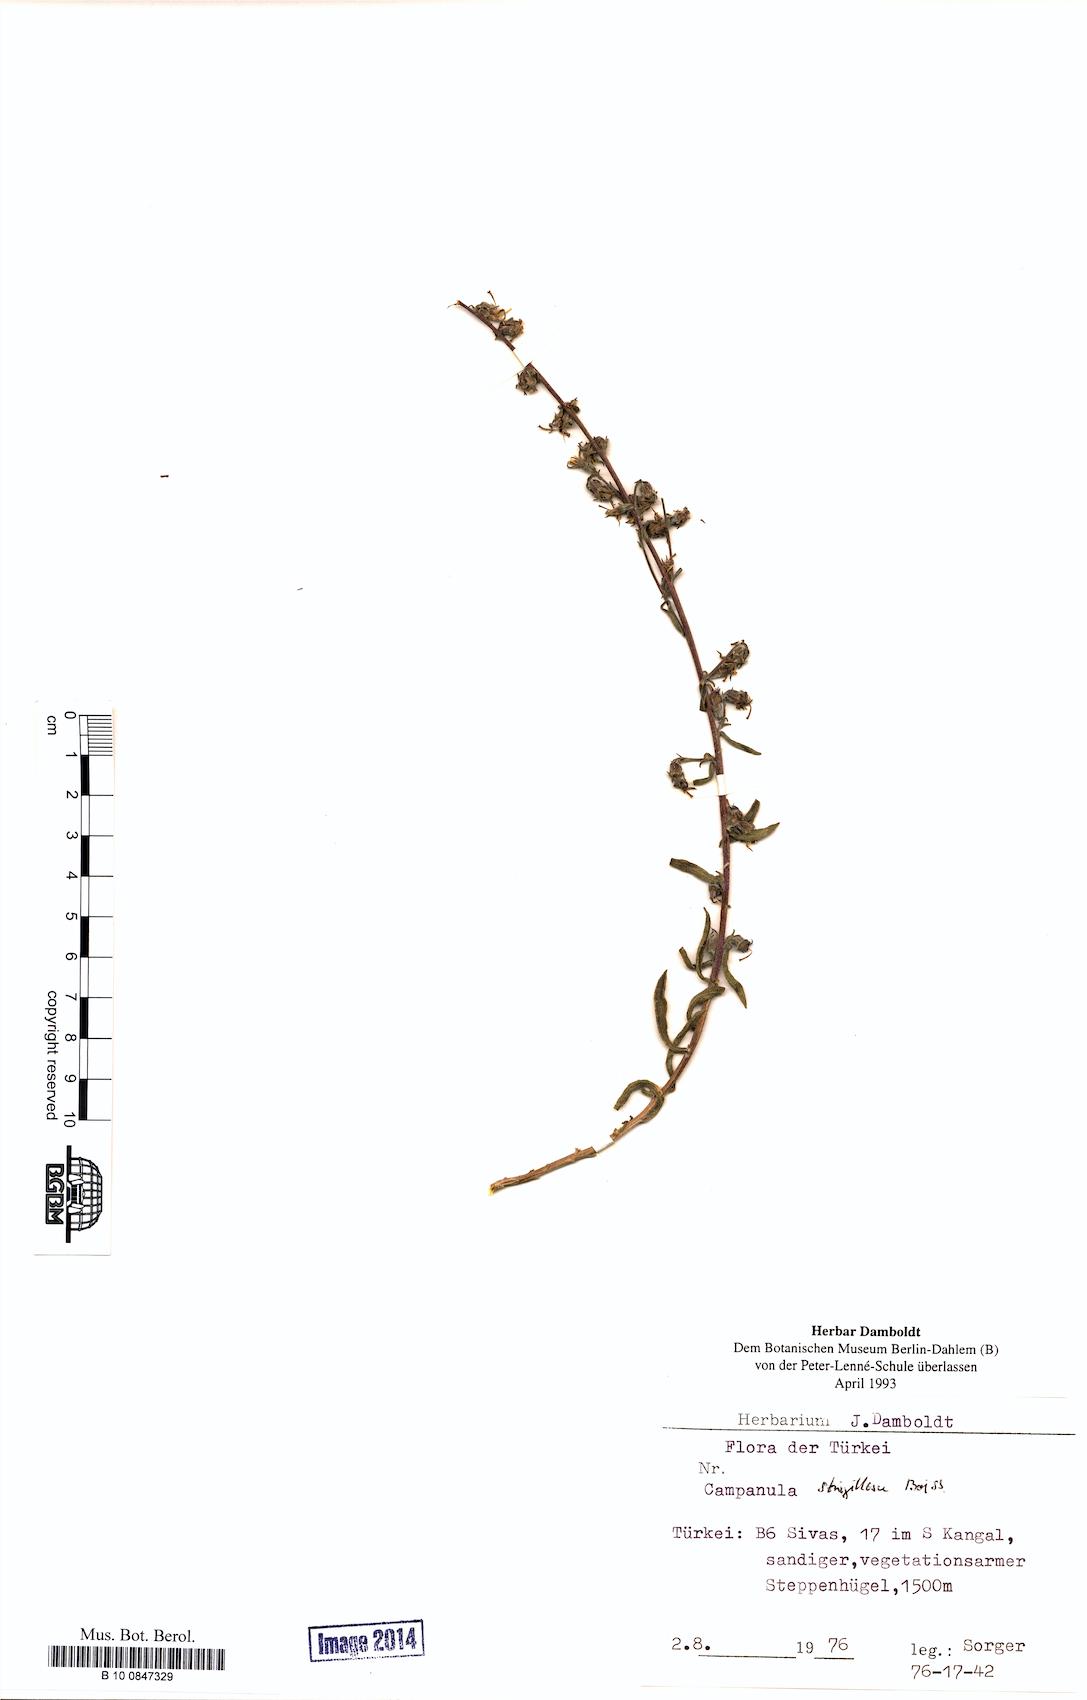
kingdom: Plantae
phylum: Tracheophyta
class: Magnoliopsida
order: Asterales
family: Campanulaceae
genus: Campanula
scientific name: Campanula strigillosa
